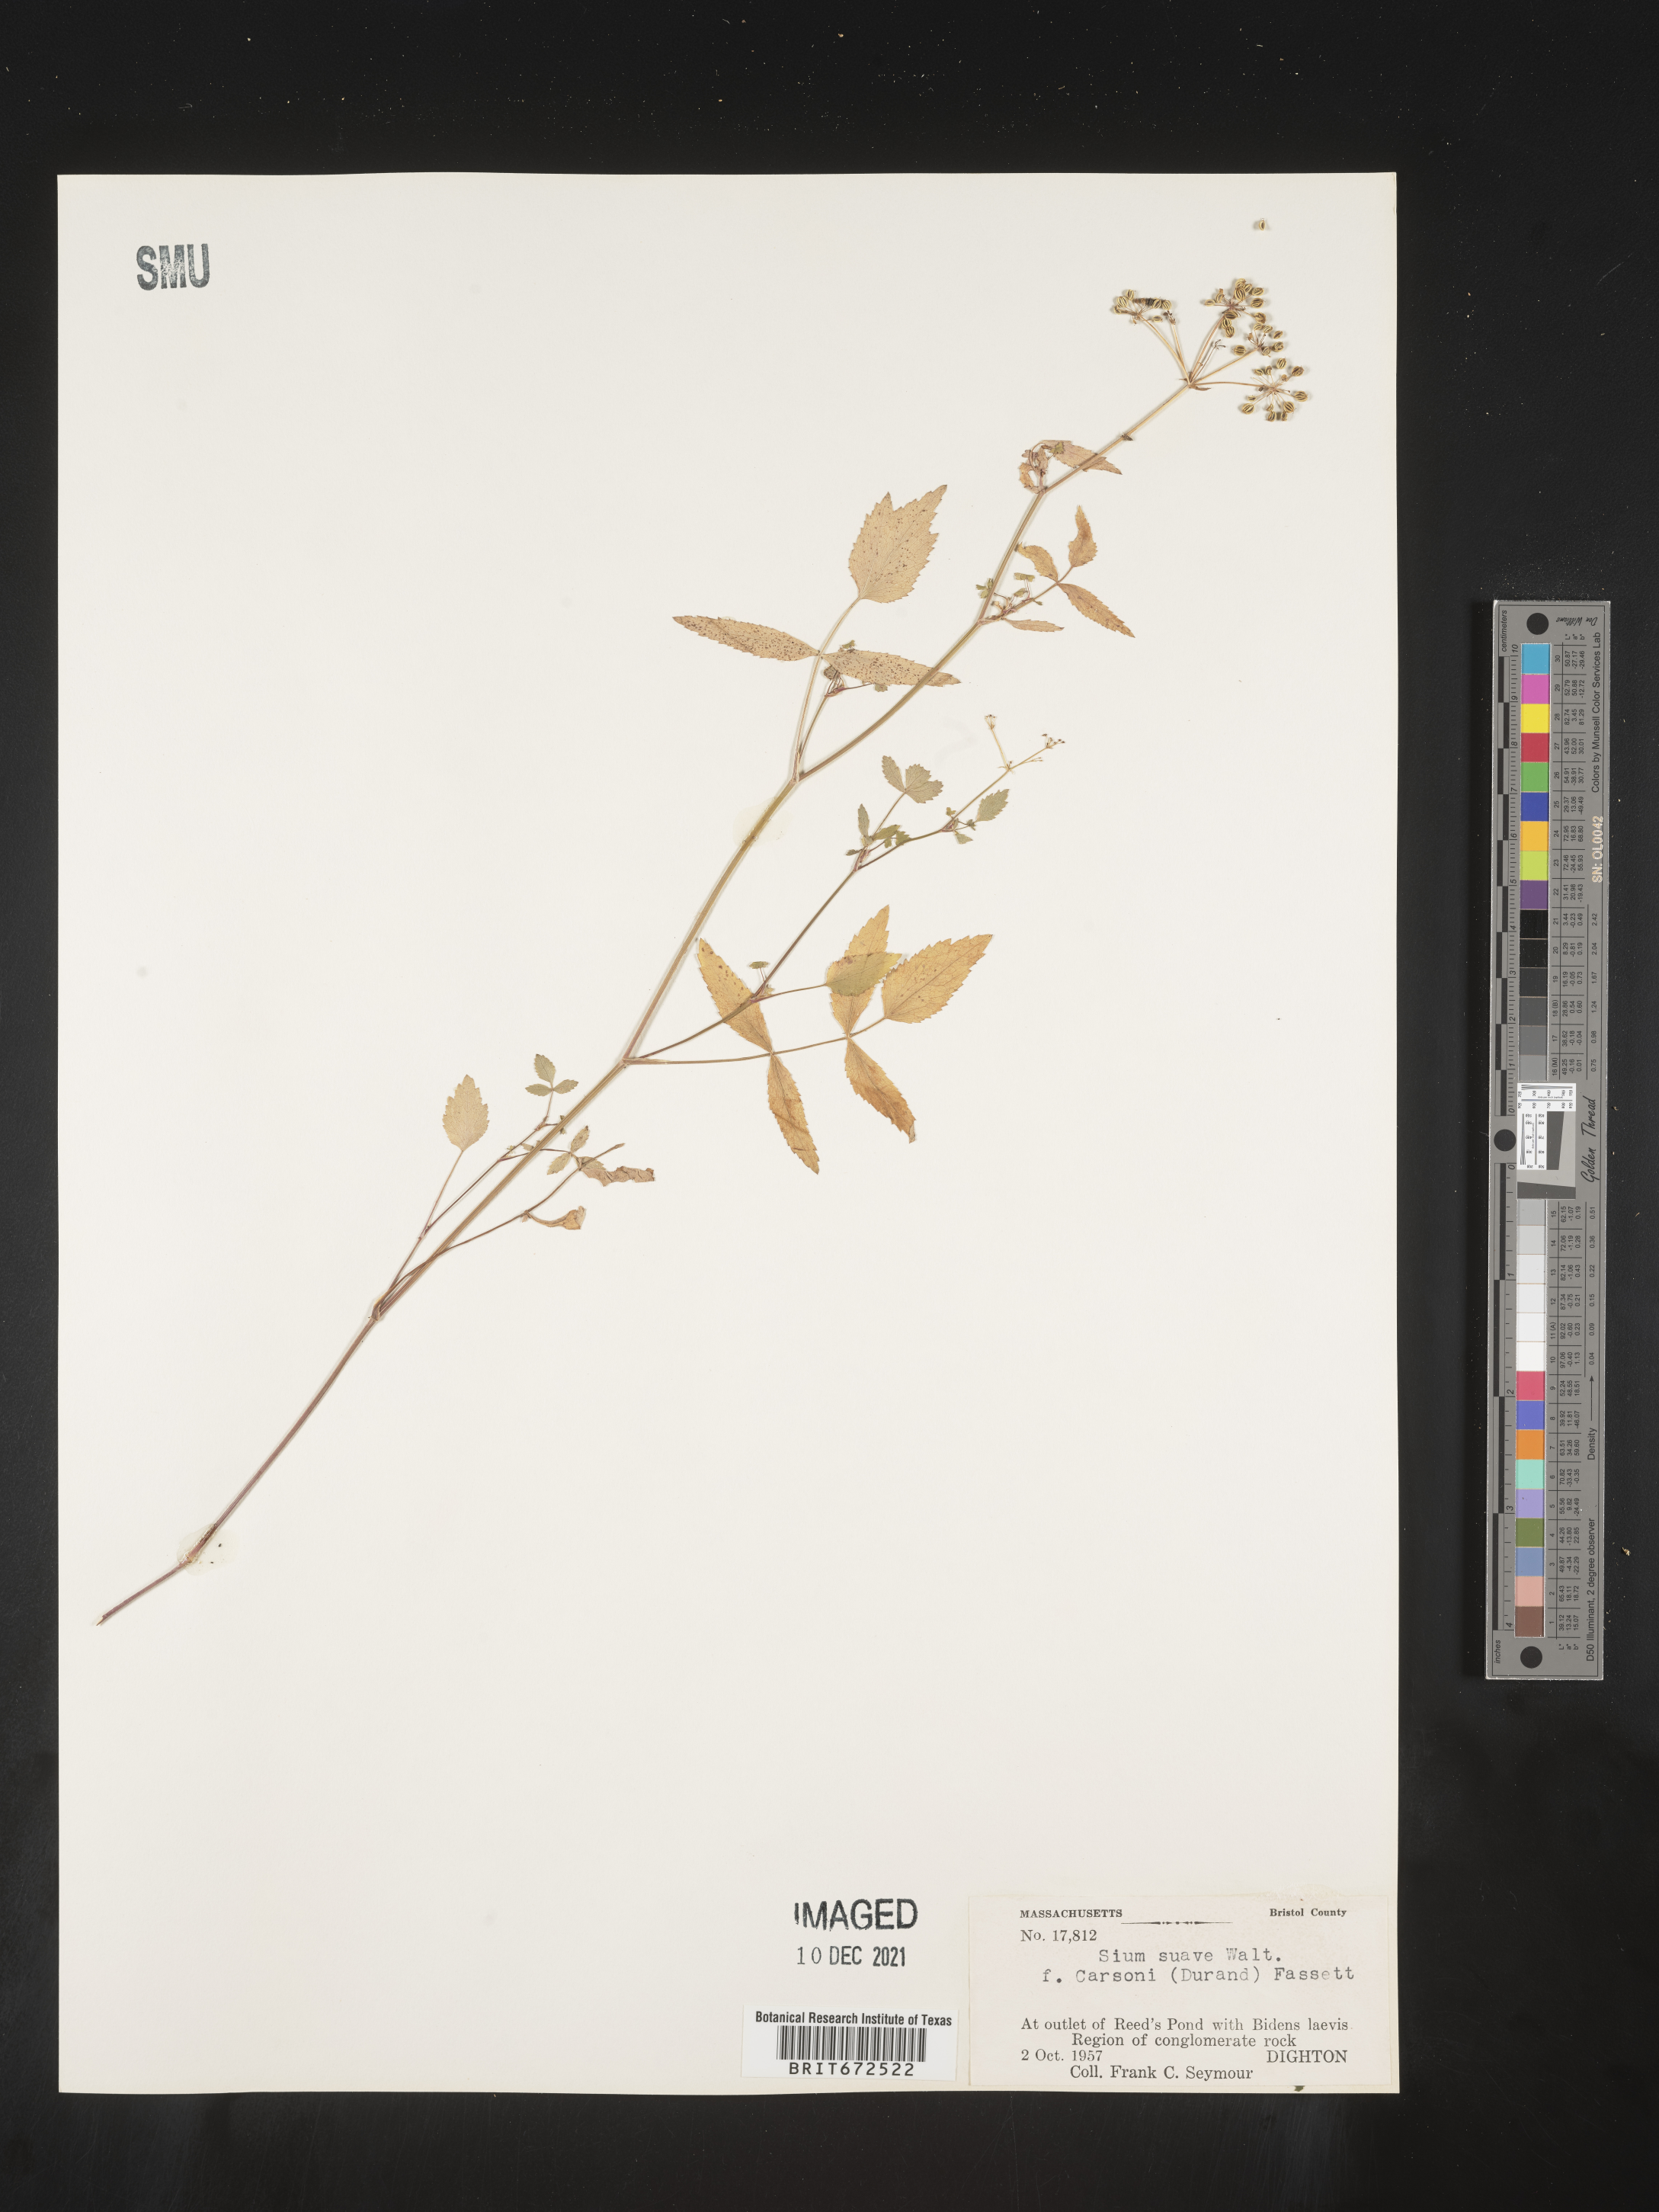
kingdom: Plantae
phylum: Tracheophyta
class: Magnoliopsida
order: Apiales
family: Apiaceae
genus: Sium
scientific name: Sium suave
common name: Hemlock water-parsnip
